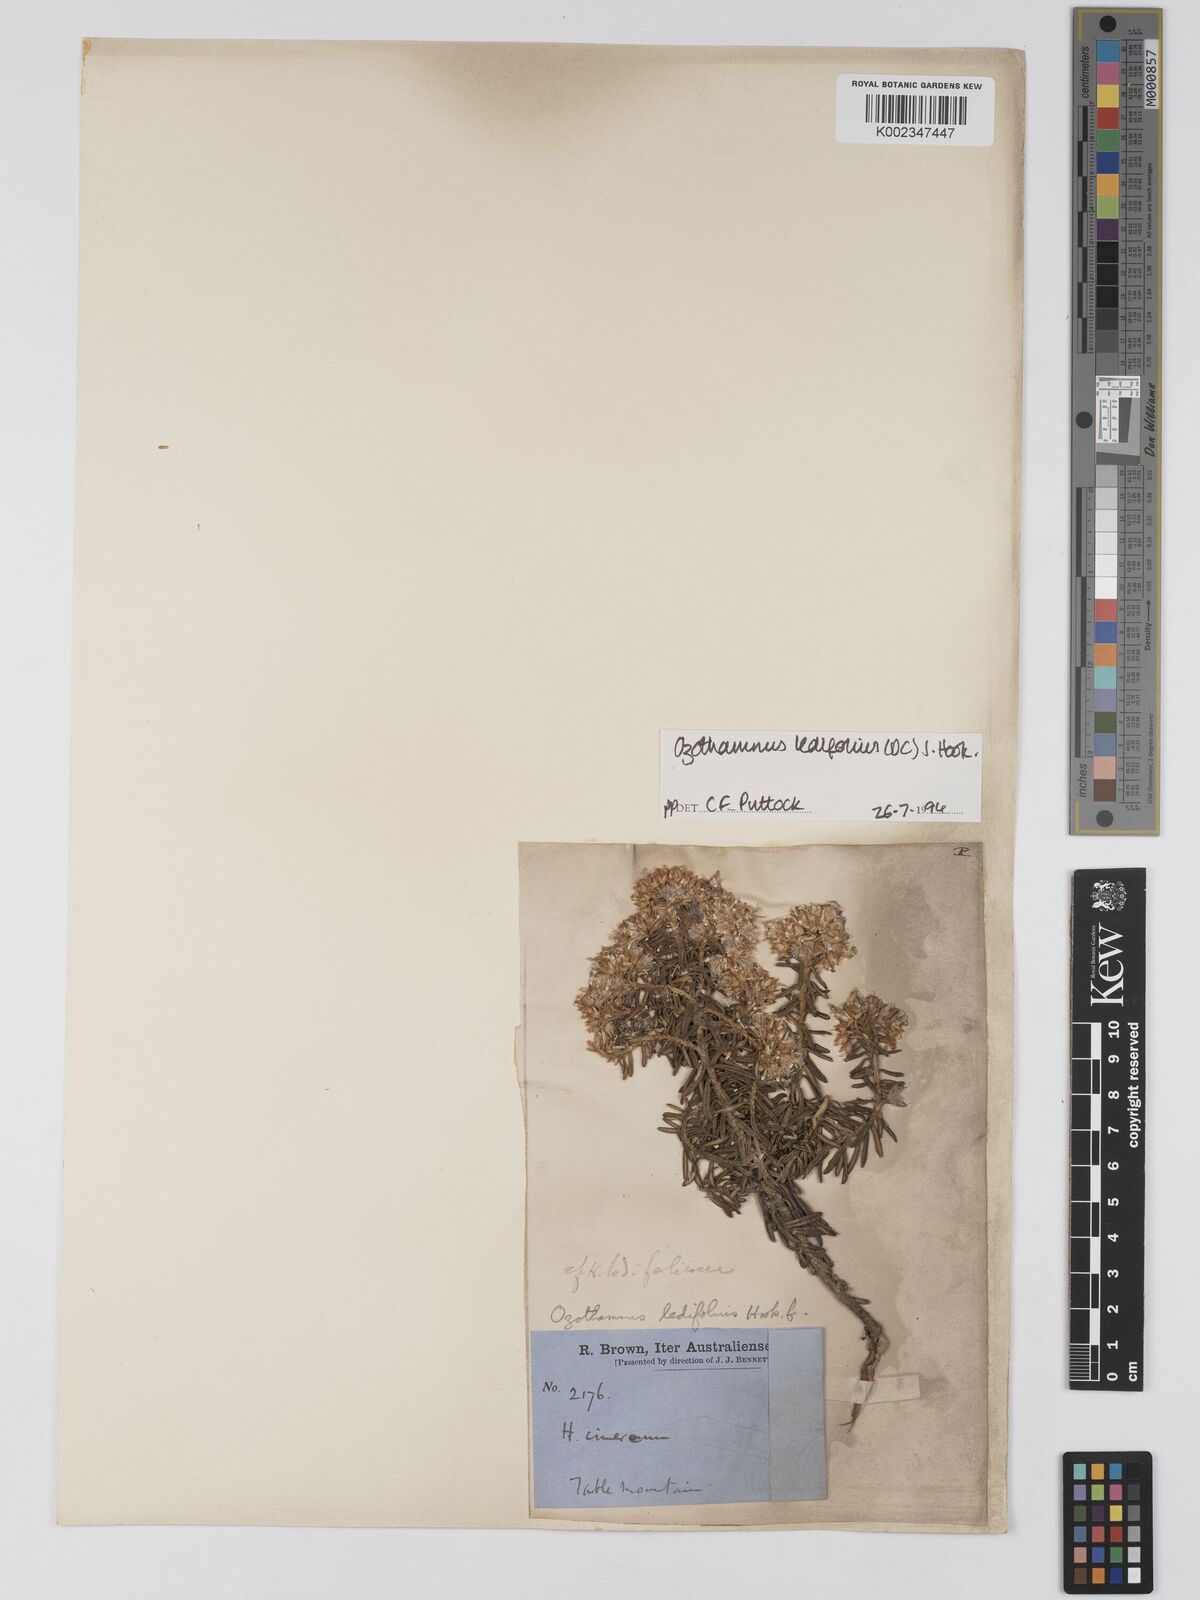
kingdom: Plantae
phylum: Tracheophyta
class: Magnoliopsida
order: Asterales
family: Asteraceae
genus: Ozothamnus
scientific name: Ozothamnus ledifolius
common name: Kerosene-weed
